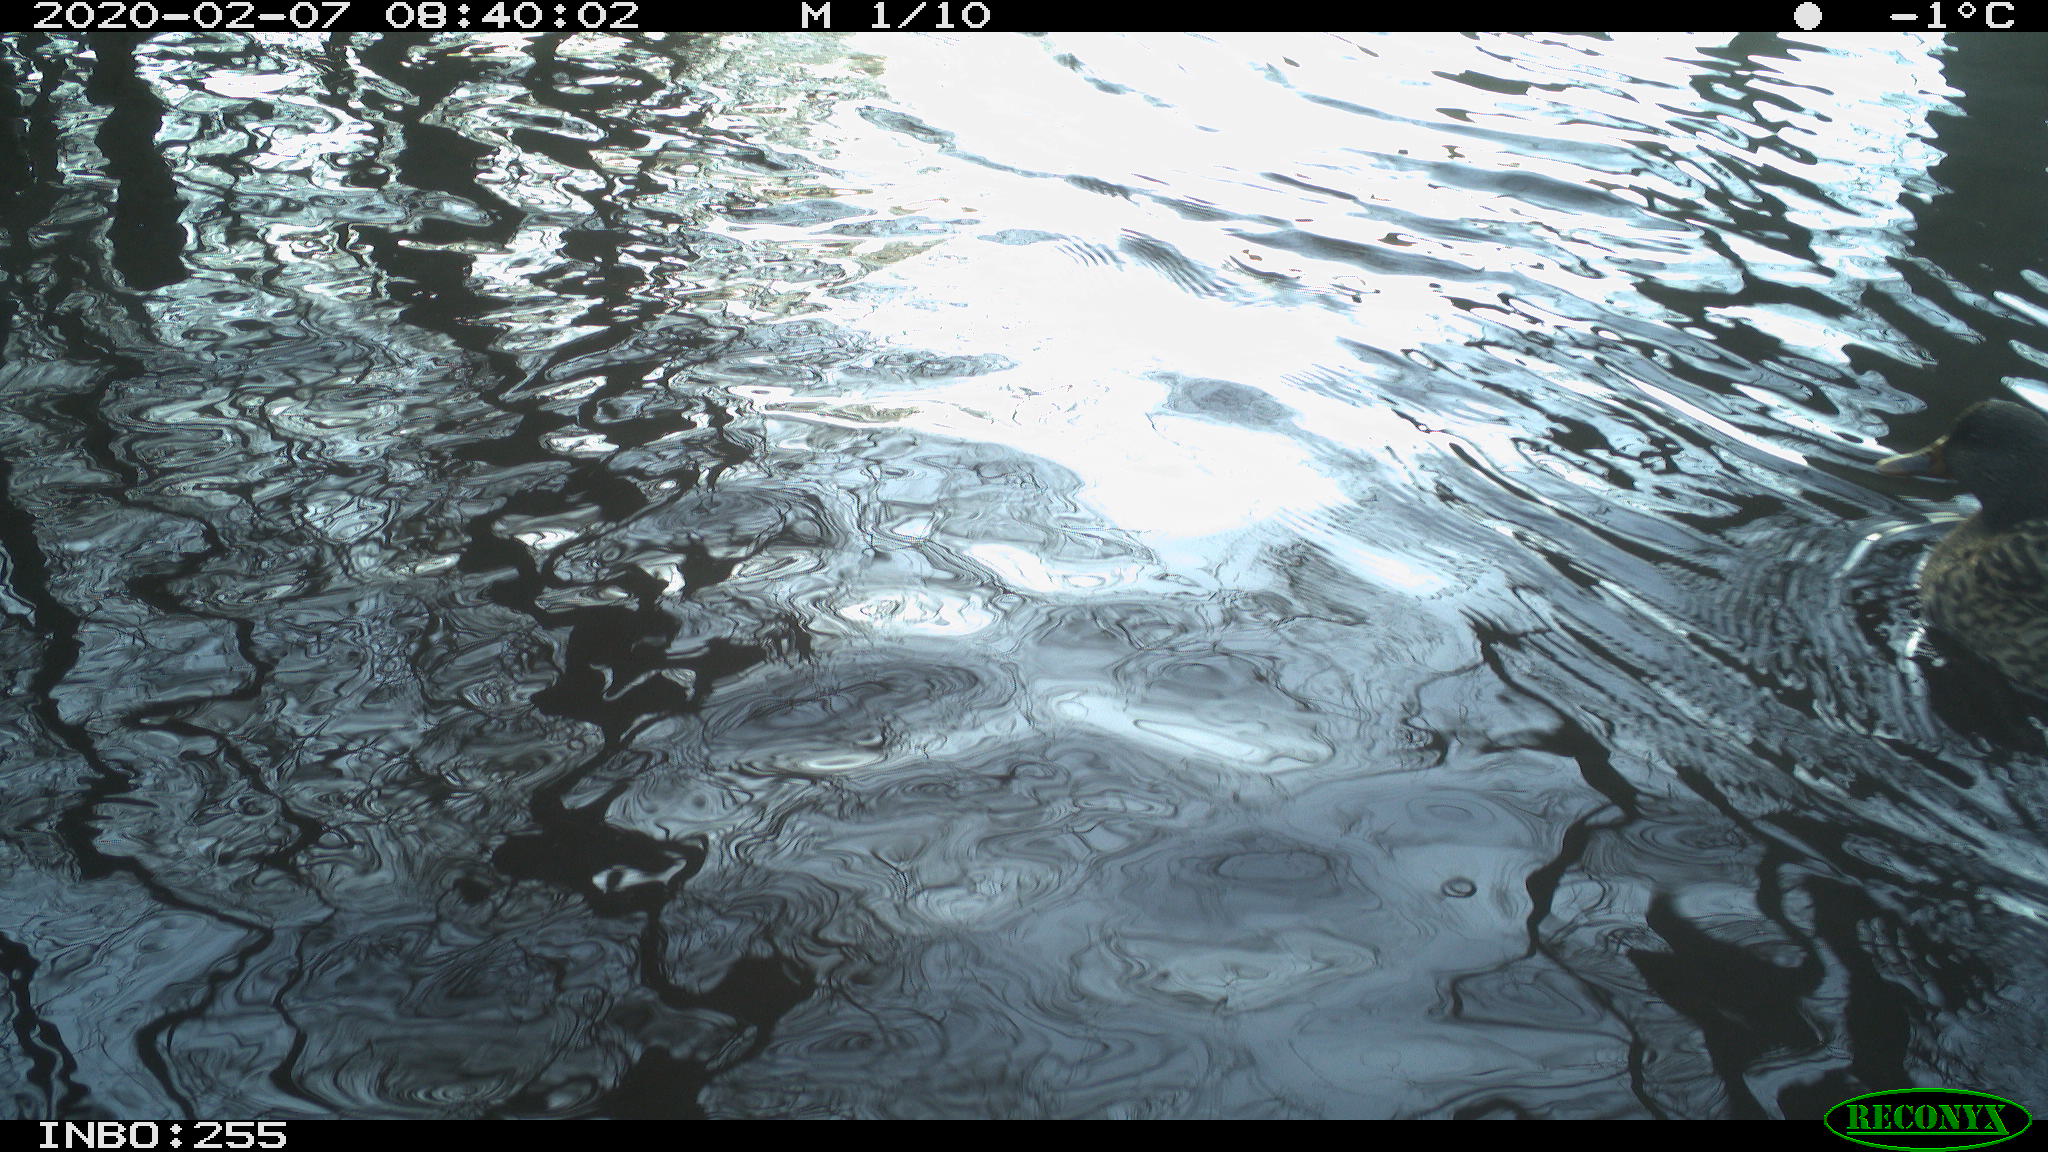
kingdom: Animalia
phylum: Chordata
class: Aves
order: Gruiformes
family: Rallidae
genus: Fulica
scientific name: Fulica atra
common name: Eurasian coot
